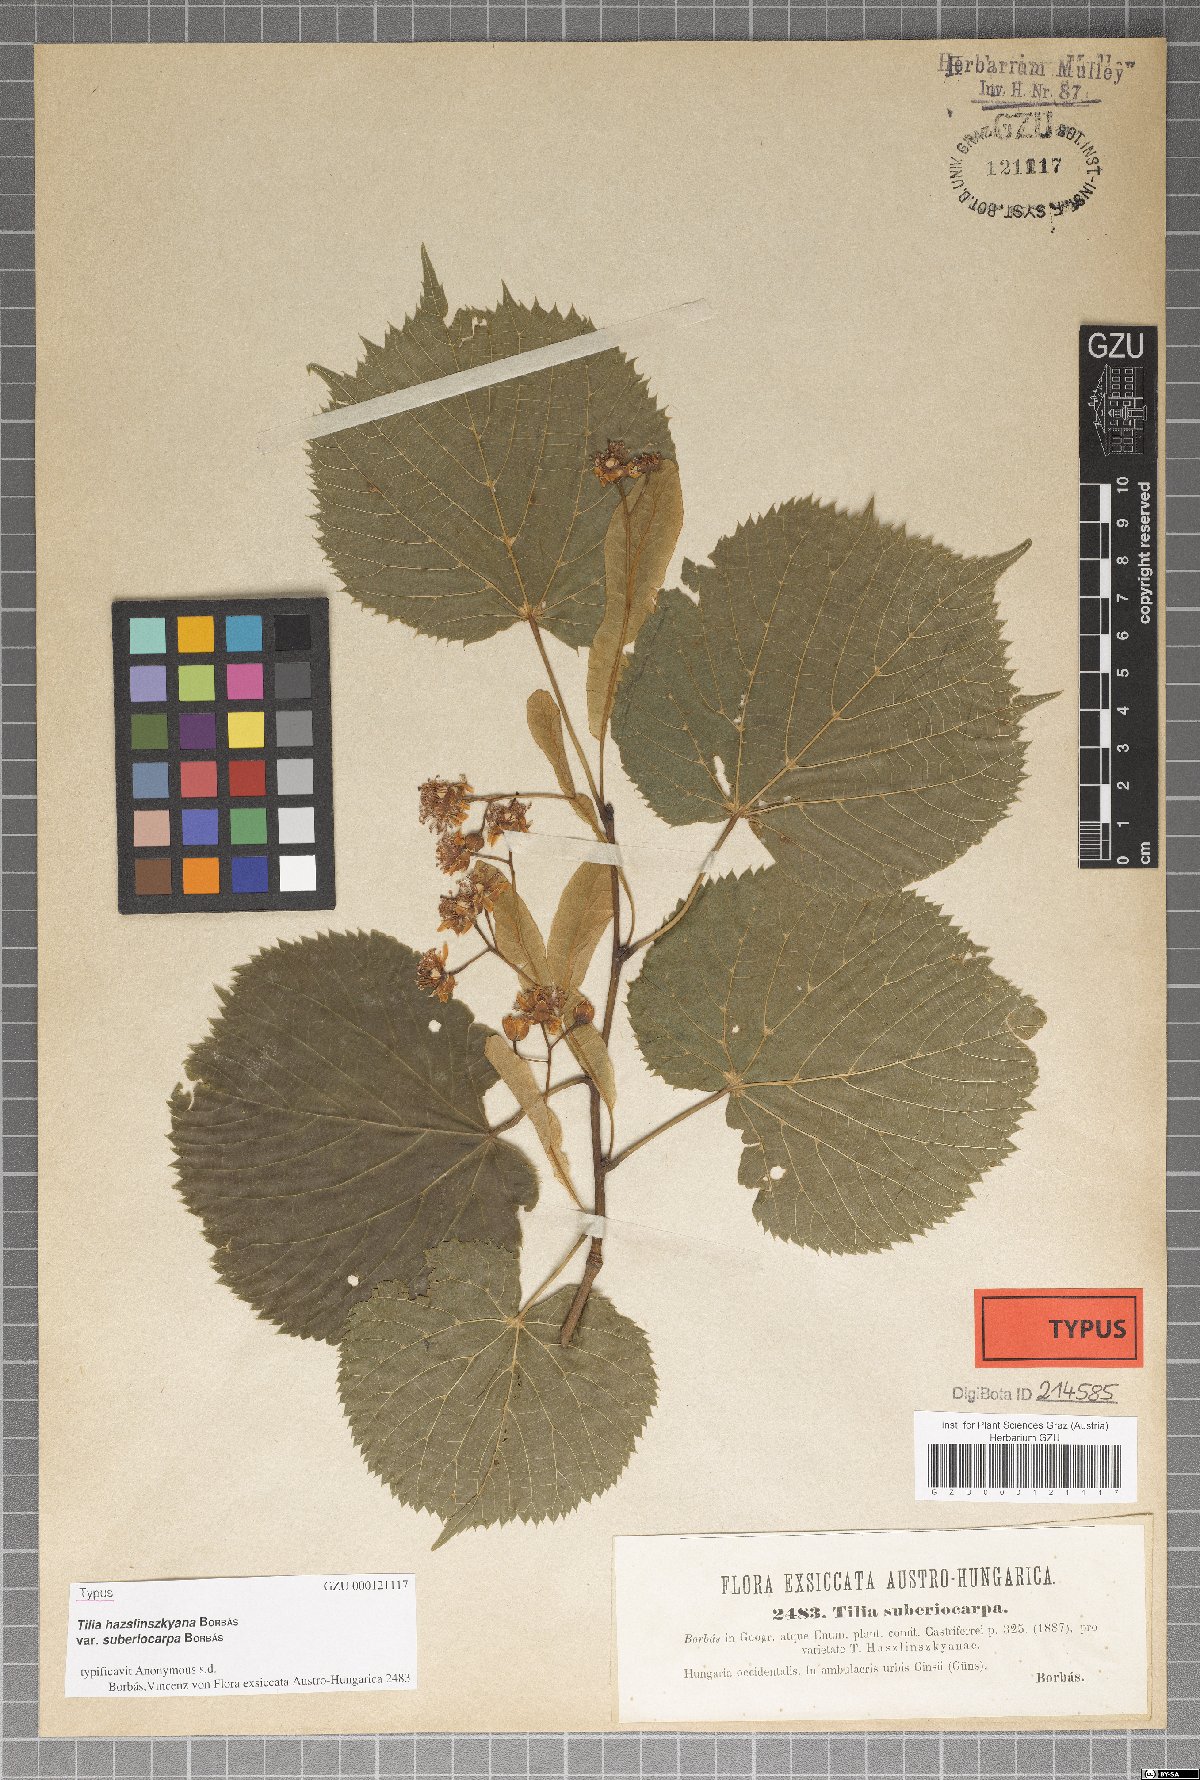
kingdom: Plantae
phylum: Tracheophyta
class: Magnoliopsida
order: Malvales
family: Malvaceae
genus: Tilia
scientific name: Tilia platyphyllos
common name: Large-leaved lime
